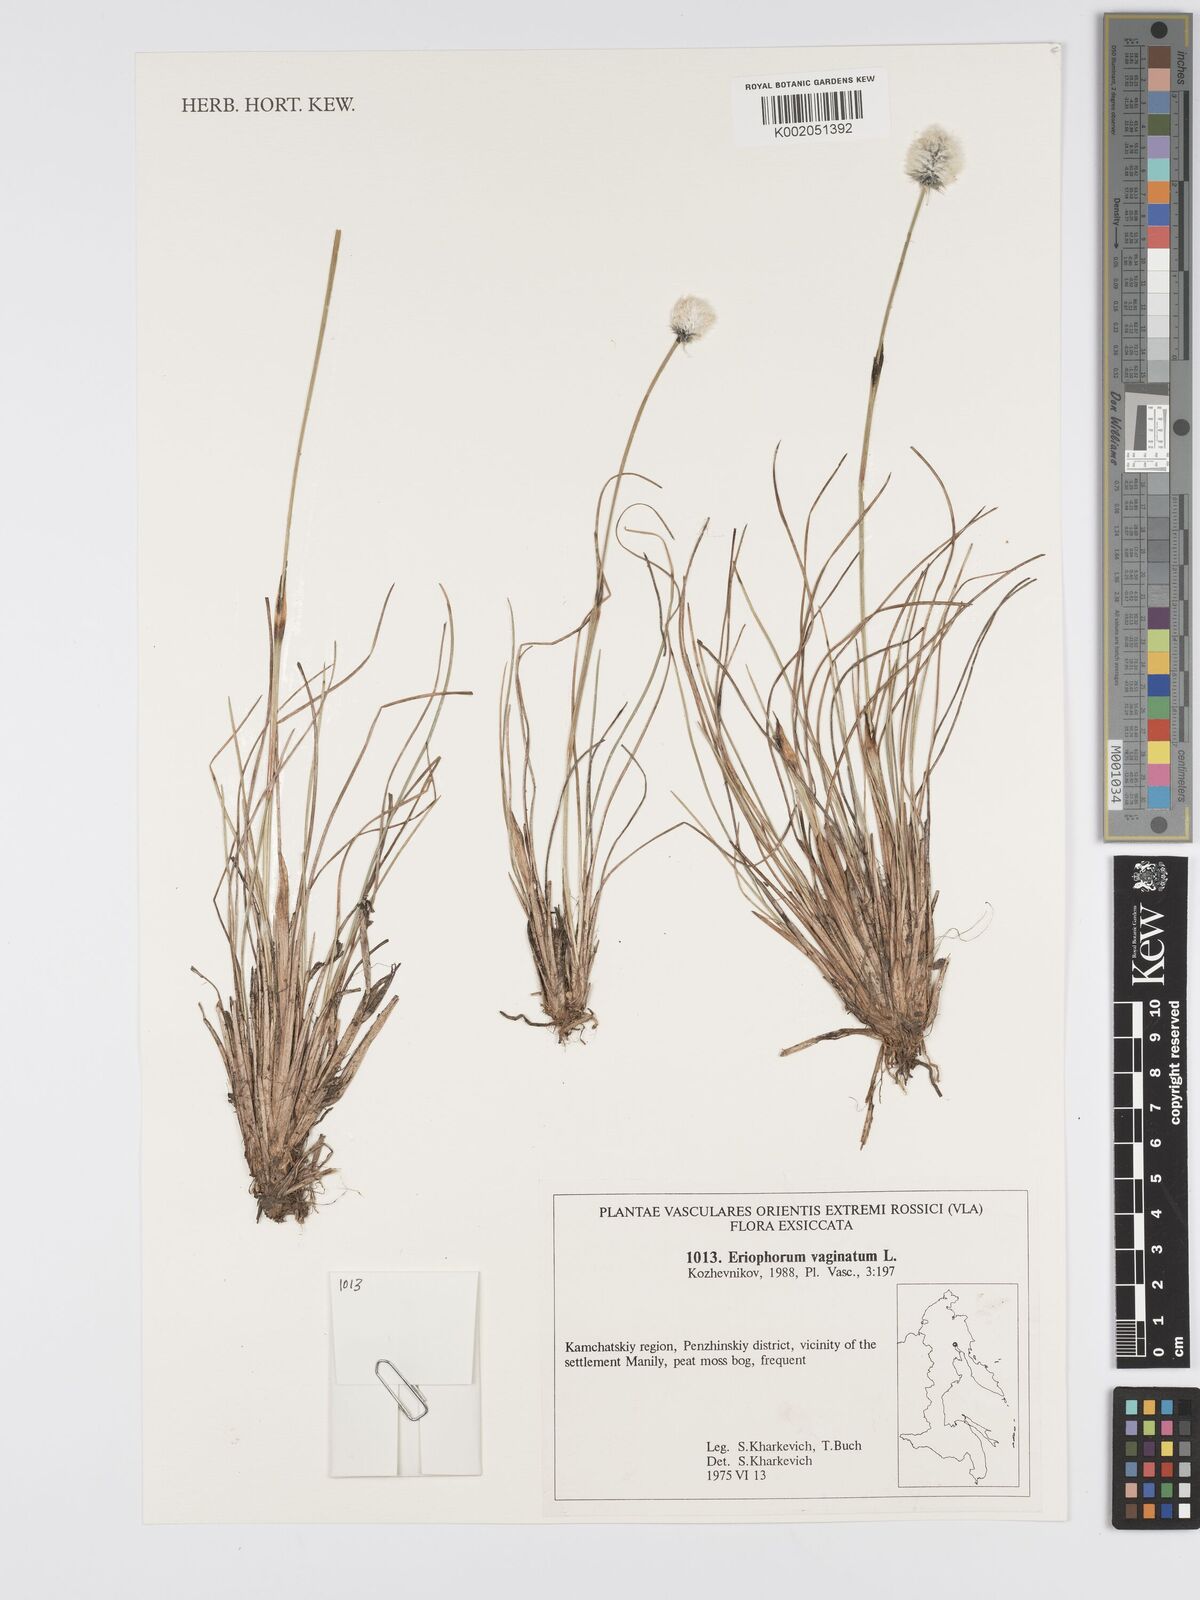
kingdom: Plantae
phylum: Tracheophyta
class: Liliopsida
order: Poales
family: Cyperaceae
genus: Eriophorum
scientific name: Eriophorum vaginatum
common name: Hare's-tail cottongrass
